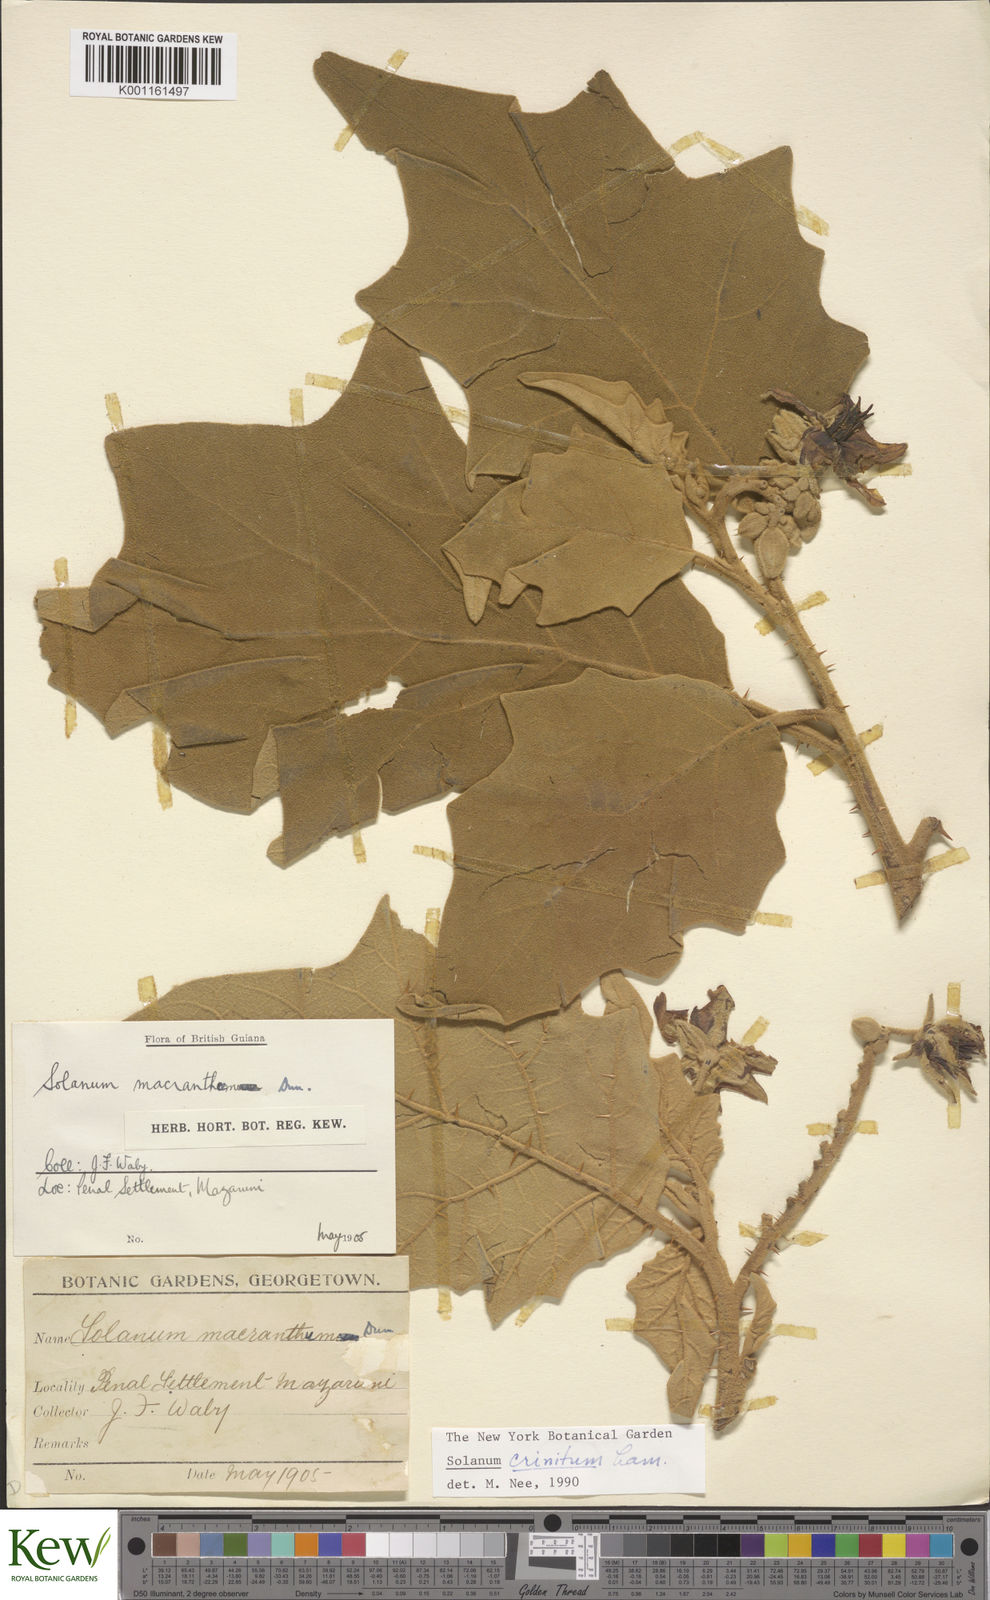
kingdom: Plantae
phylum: Tracheophyta
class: Magnoliopsida
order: Solanales
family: Solanaceae
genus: Solanum
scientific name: Solanum crinitum
